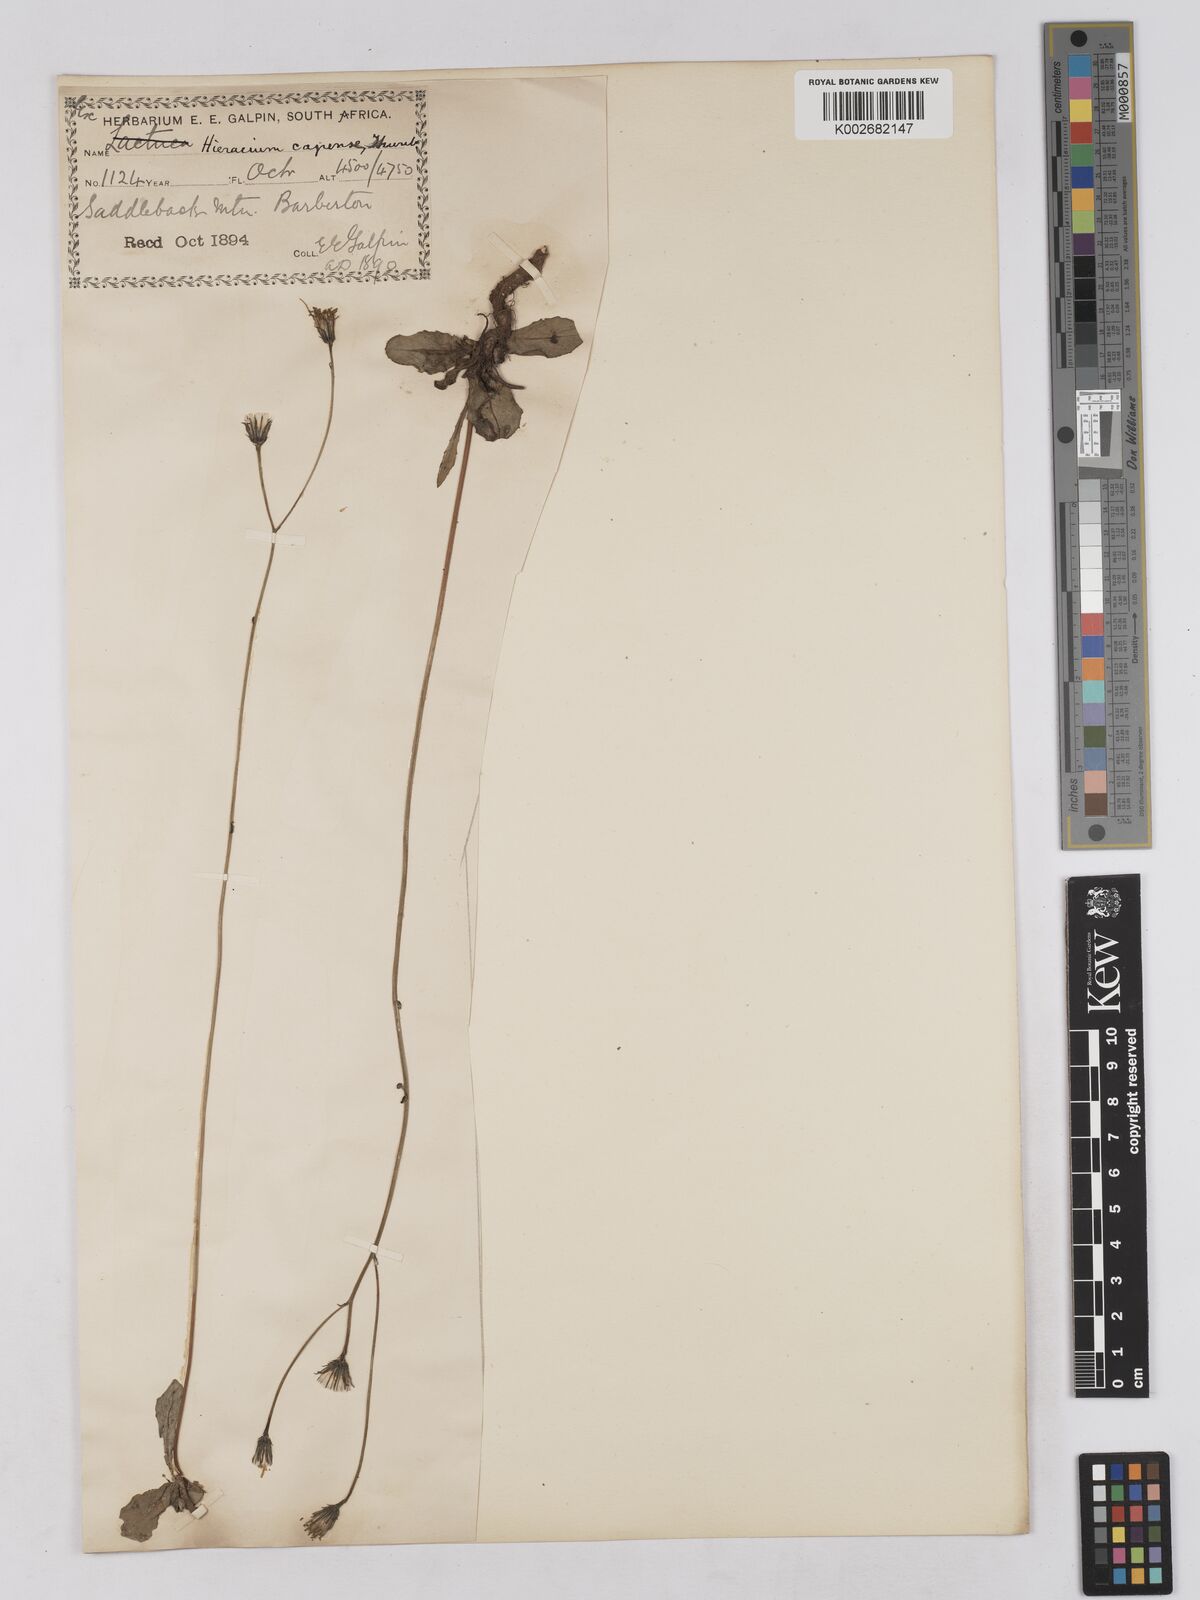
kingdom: Plantae
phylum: Tracheophyta
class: Magnoliopsida
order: Asterales
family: Asteraceae
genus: Tolpis
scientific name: Tolpis capensis
